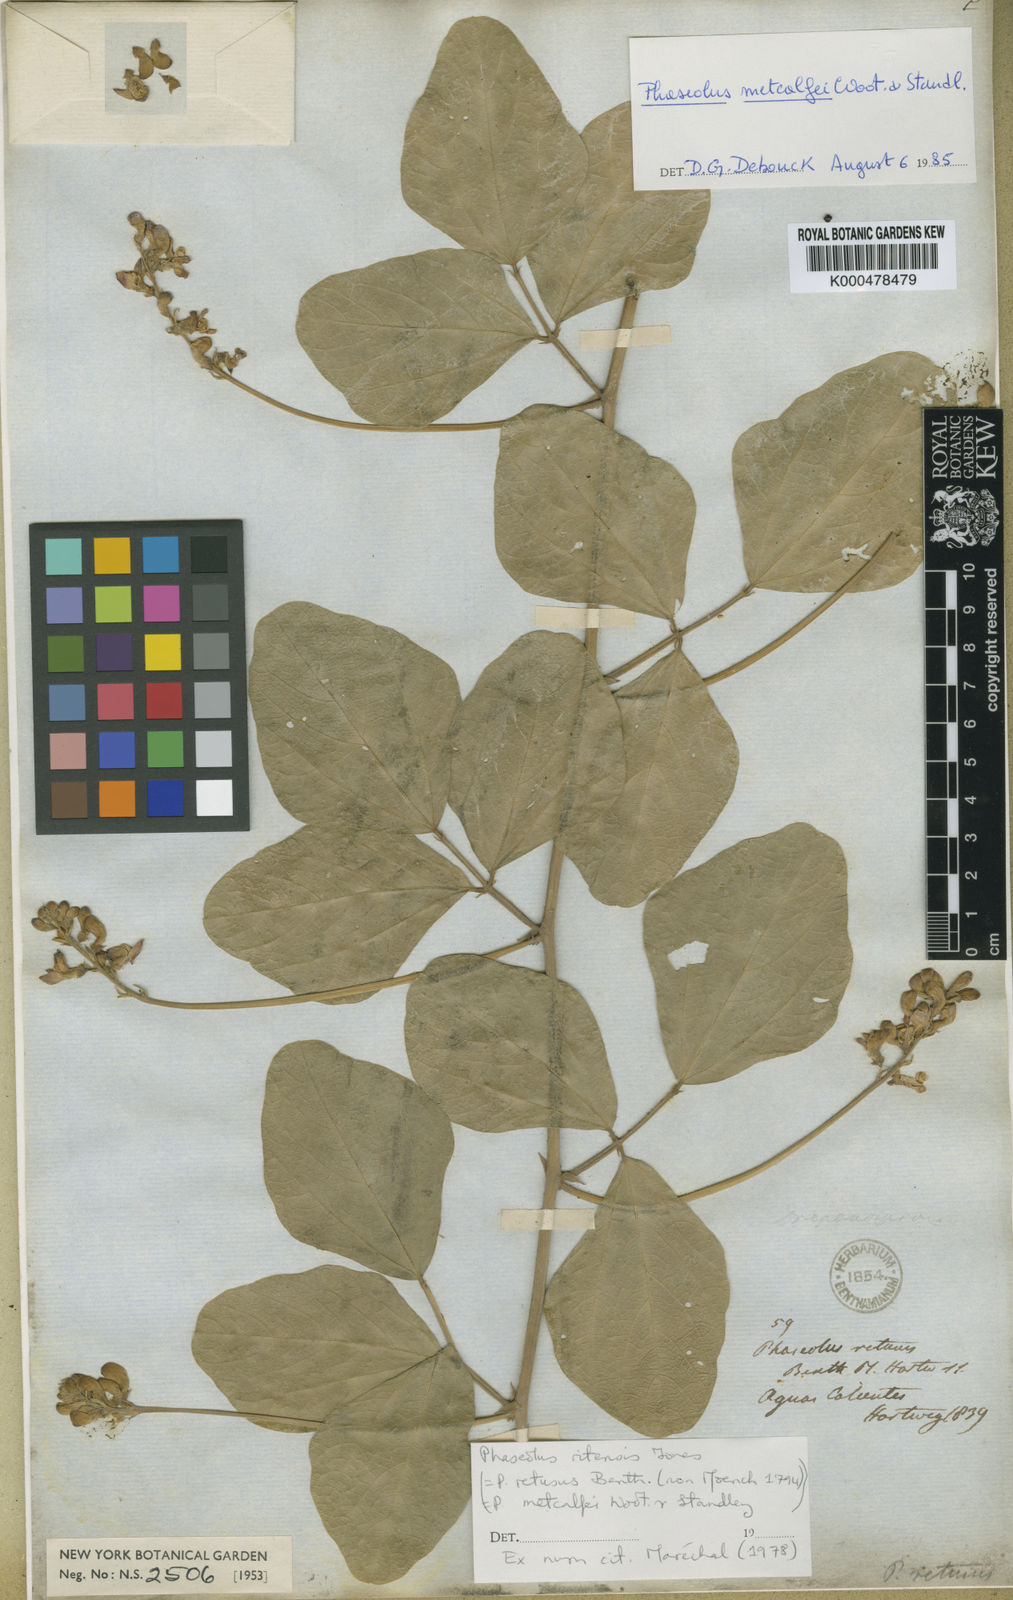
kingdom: Plantae
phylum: Tracheophyta
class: Magnoliopsida
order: Fabales
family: Fabaceae
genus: Phaseolus
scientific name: Phaseolus maculatus
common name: Metcalfe bean
